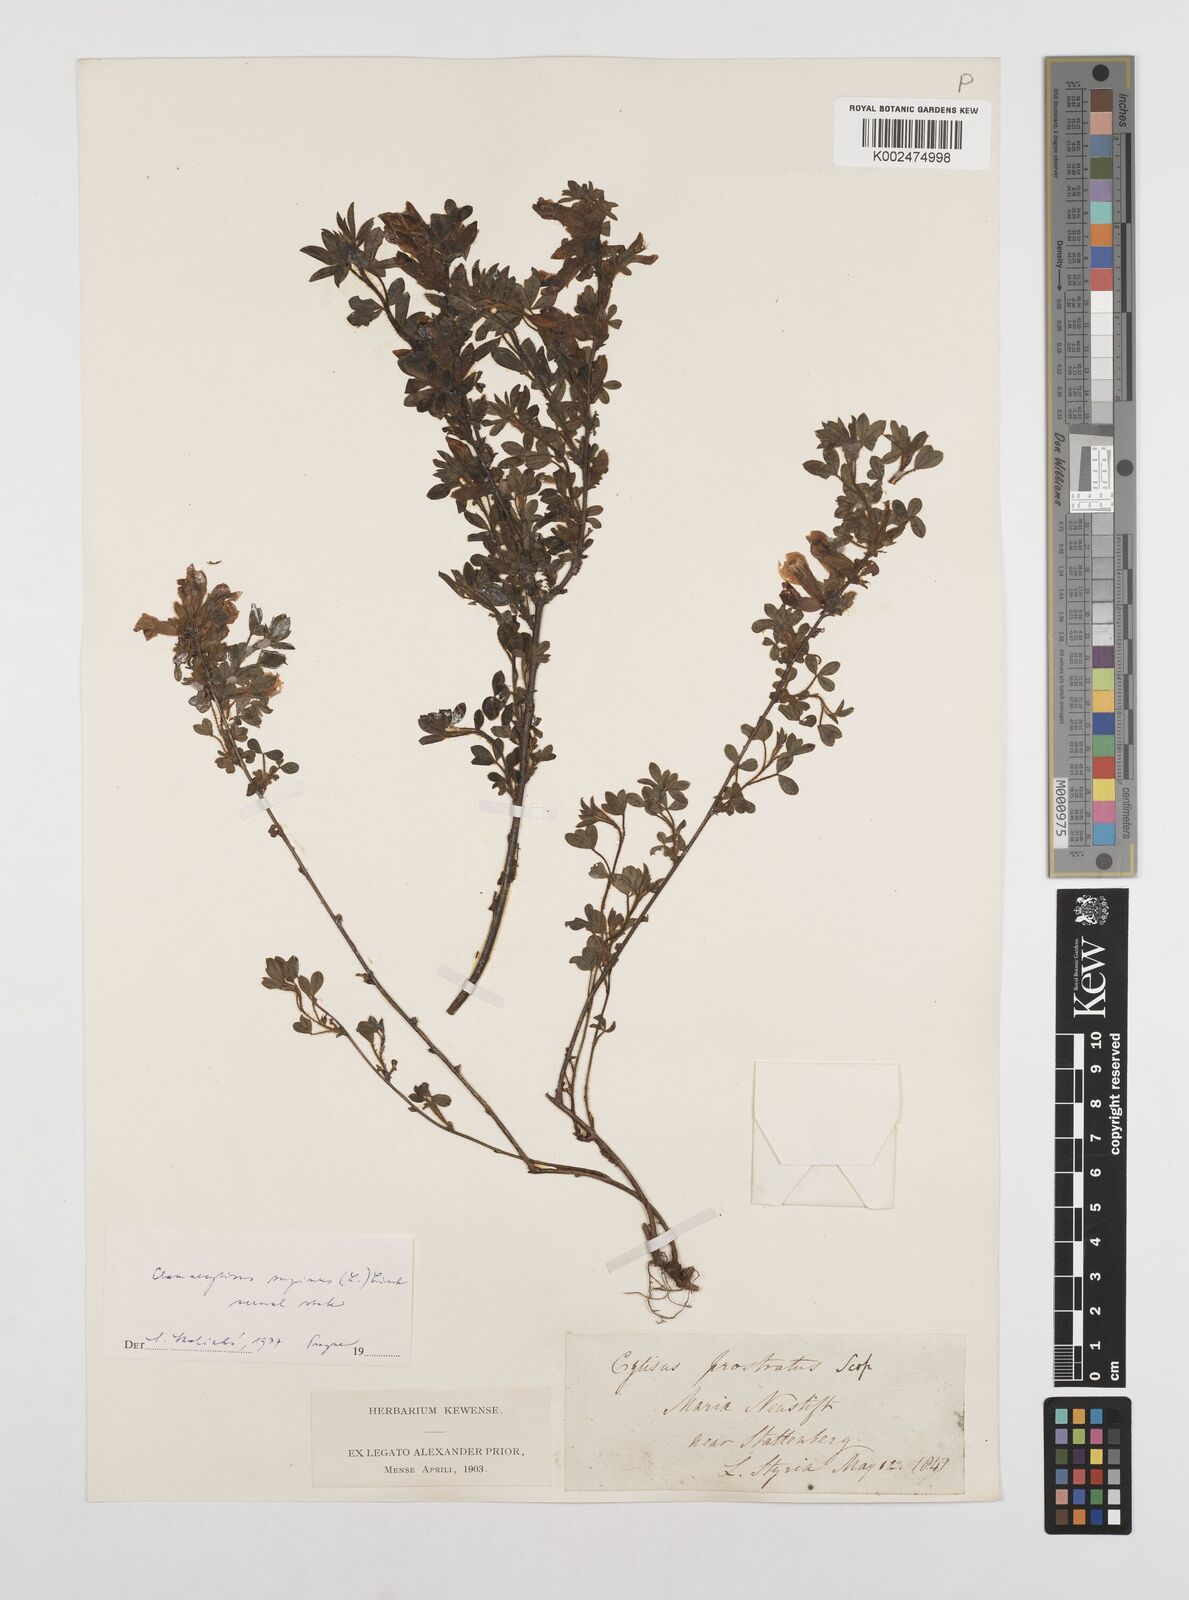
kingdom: Plantae
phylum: Tracheophyta
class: Magnoliopsida
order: Fabales
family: Fabaceae
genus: Chamaecytisus
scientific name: Chamaecytisus hirsutus
